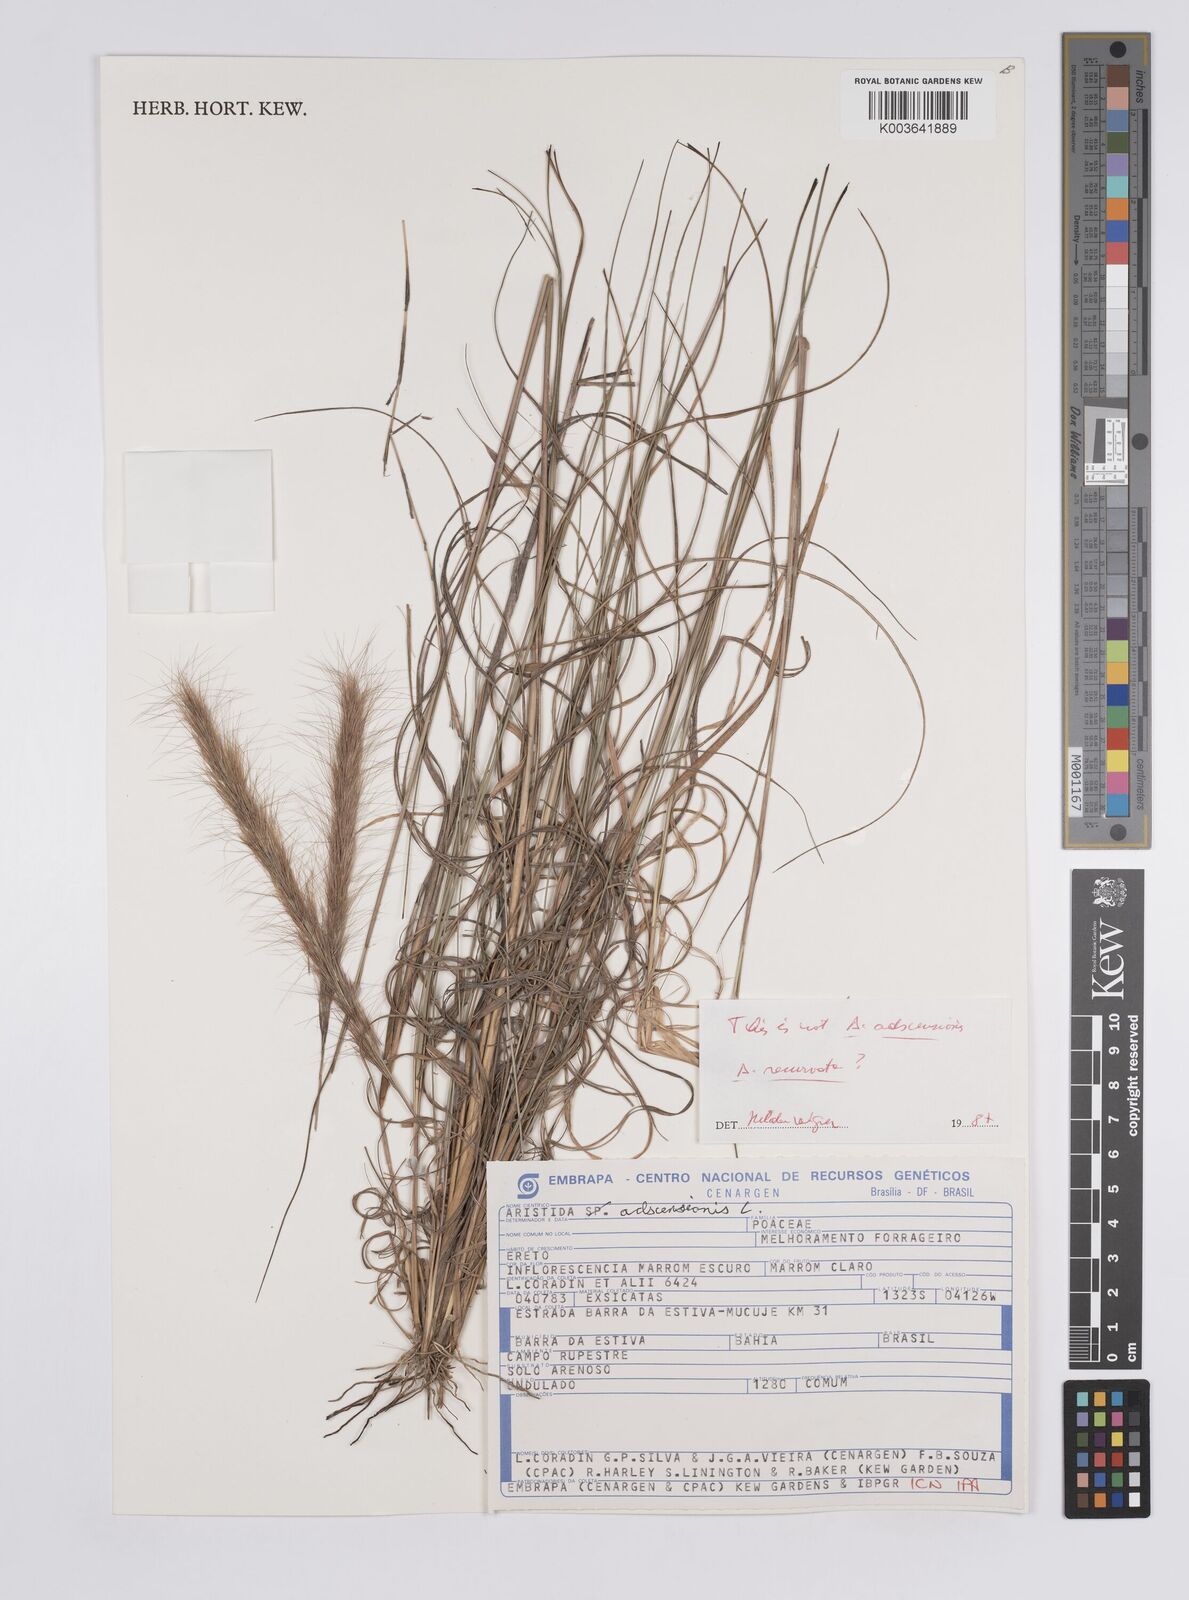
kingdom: Plantae
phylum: Tracheophyta
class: Liliopsida
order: Poales
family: Poaceae
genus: Aristida
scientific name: Aristida adscensionis
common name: Sixweeks threeawn
